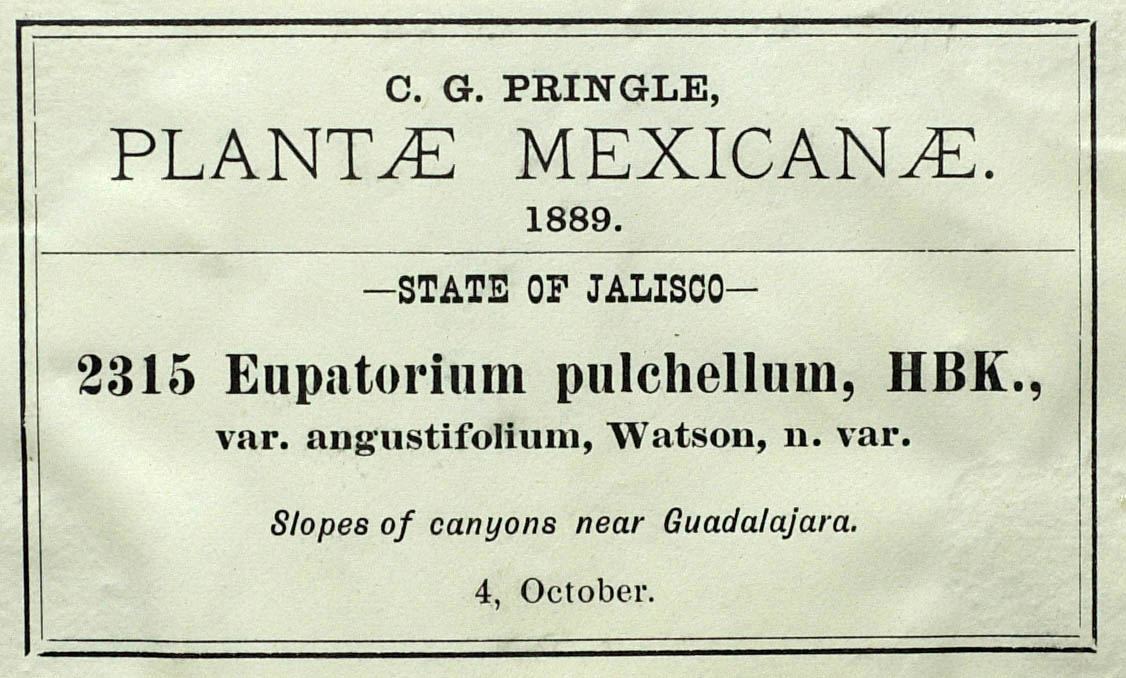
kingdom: Plantae
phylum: Tracheophyta
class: Magnoliopsida
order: Asterales
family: Asteraceae
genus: Chromolaena
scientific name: Chromolaena pulchella
